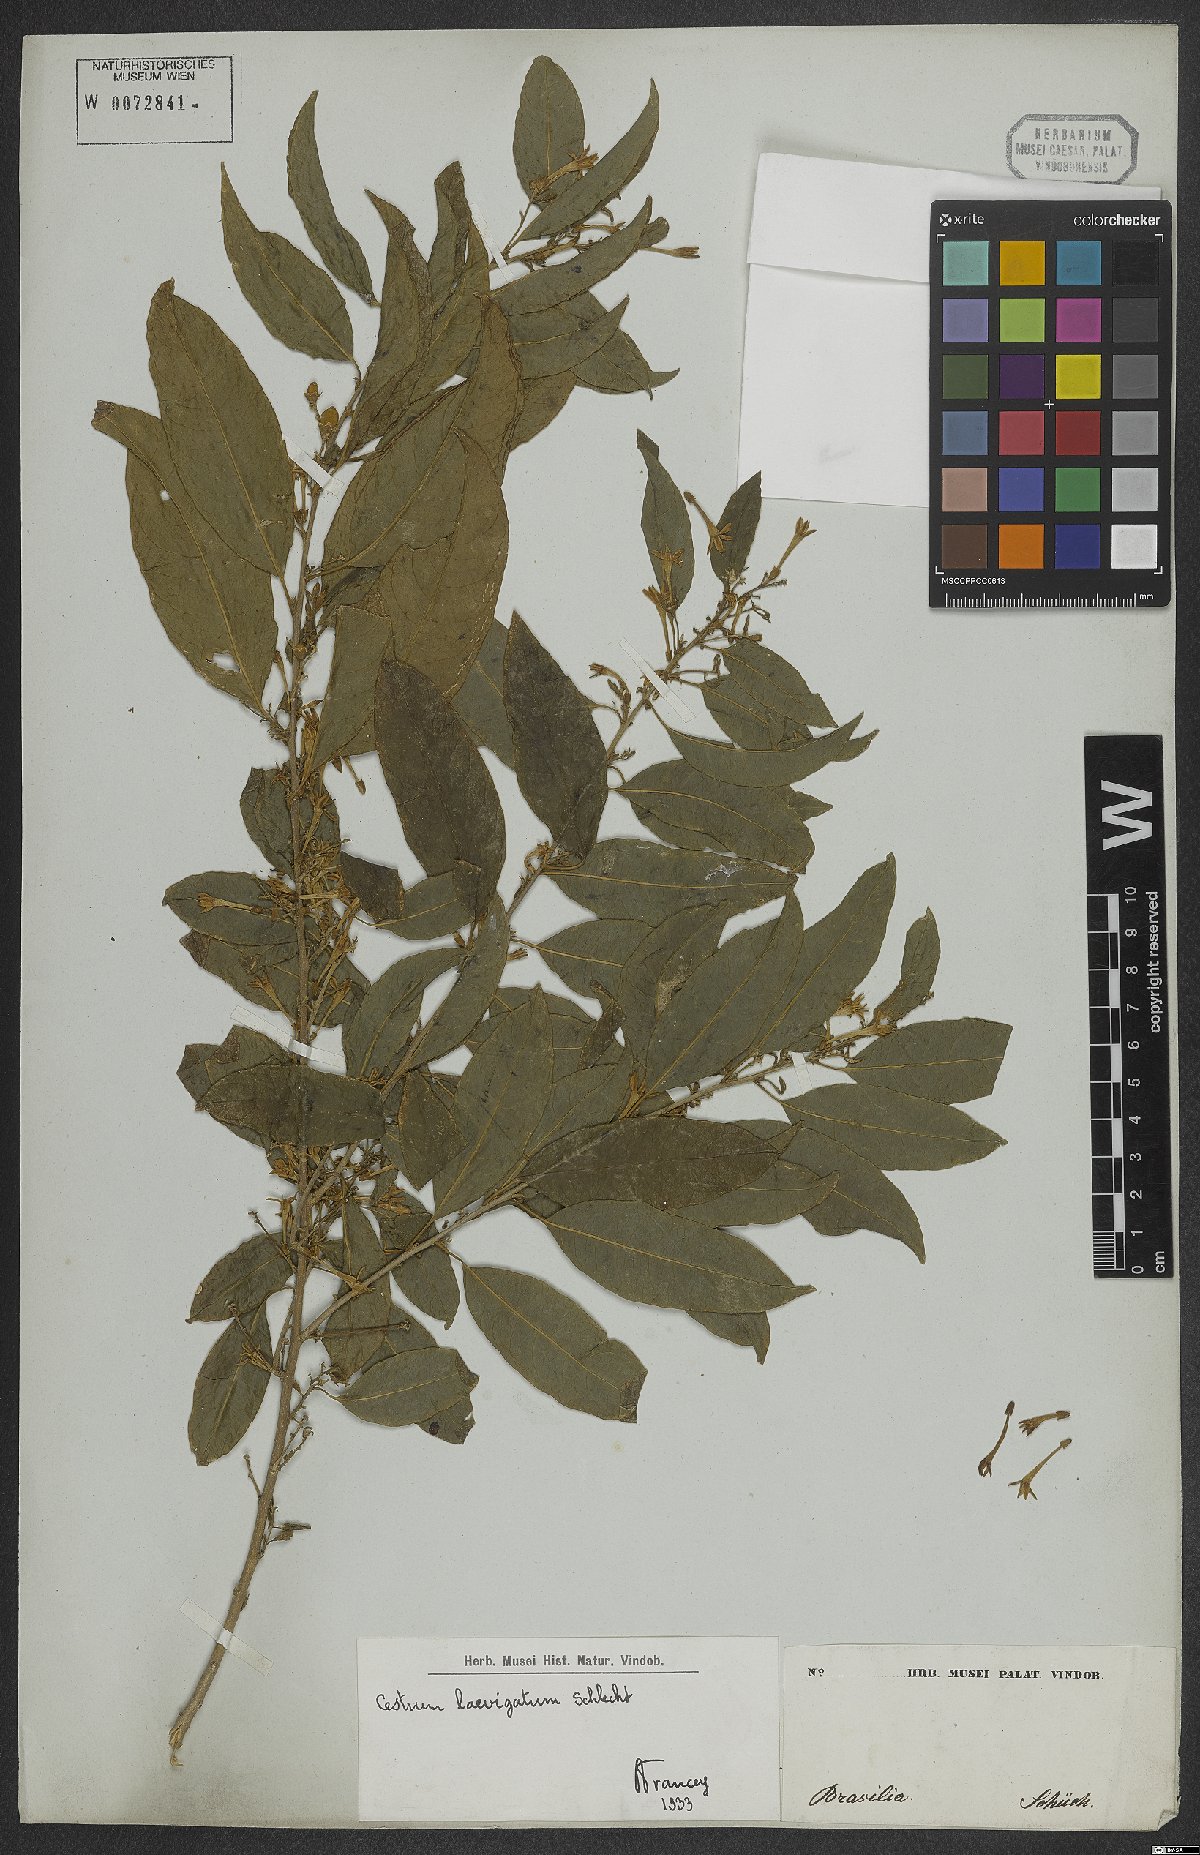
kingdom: Plantae
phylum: Tracheophyta
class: Magnoliopsida
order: Solanales
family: Solanaceae
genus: Cestrum
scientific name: Cestrum laevigatum
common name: Inkberry
